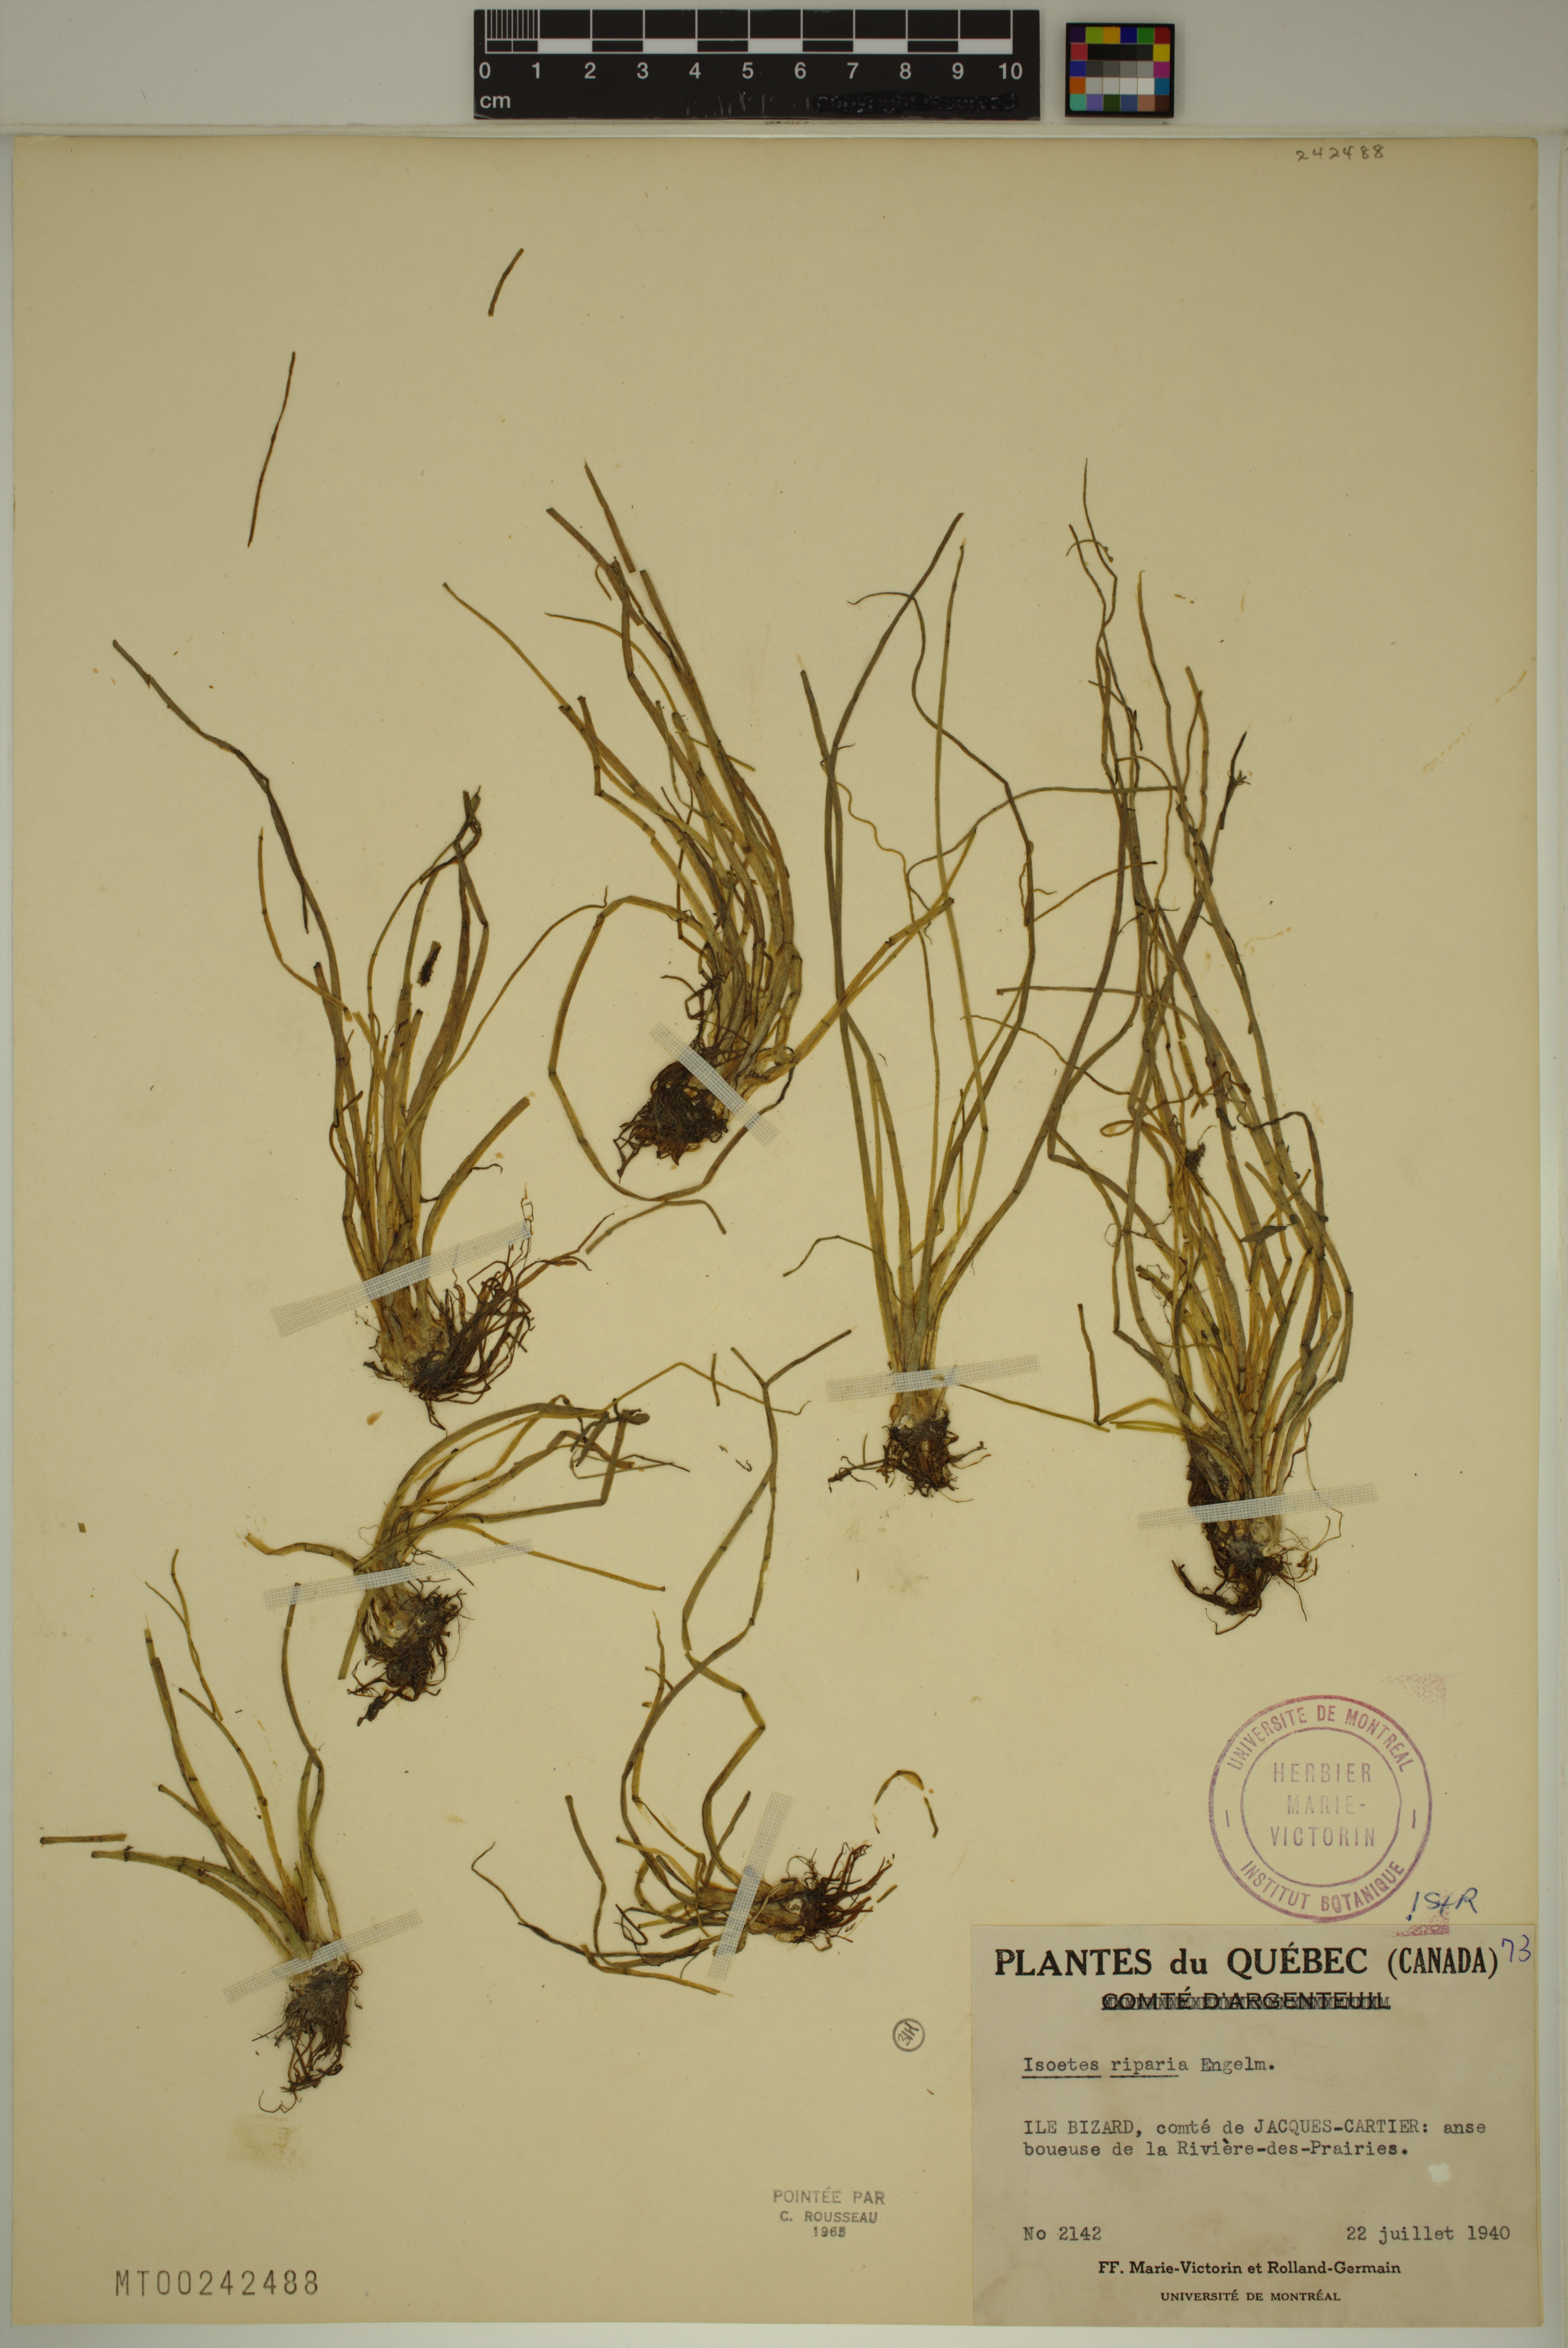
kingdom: Plantae
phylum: Tracheophyta
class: Lycopodiopsida
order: Isoetales
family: Isoetaceae
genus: Isoetes
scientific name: Isoetes septentrionalis
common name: Northern quillwort
